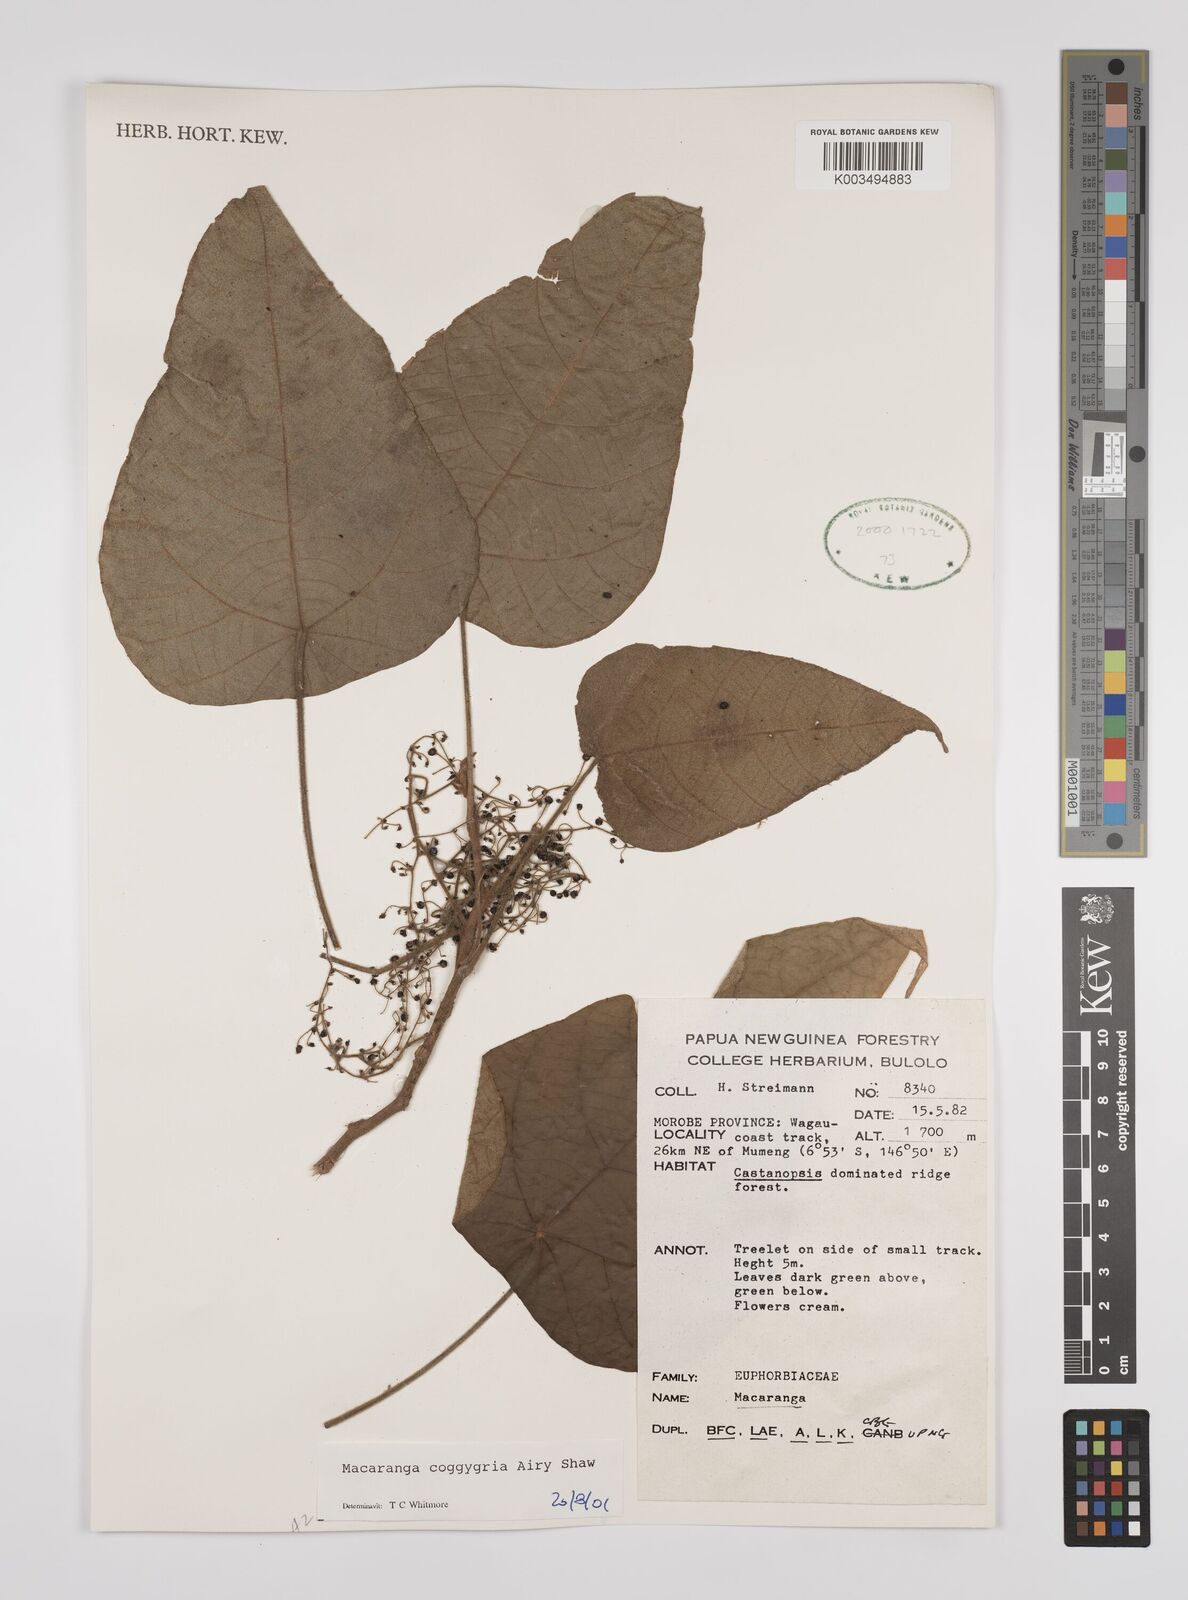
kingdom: Plantae
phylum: Tracheophyta
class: Magnoliopsida
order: Malpighiales
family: Euphorbiaceae
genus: Macaranga
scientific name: Macaranga coggygria
